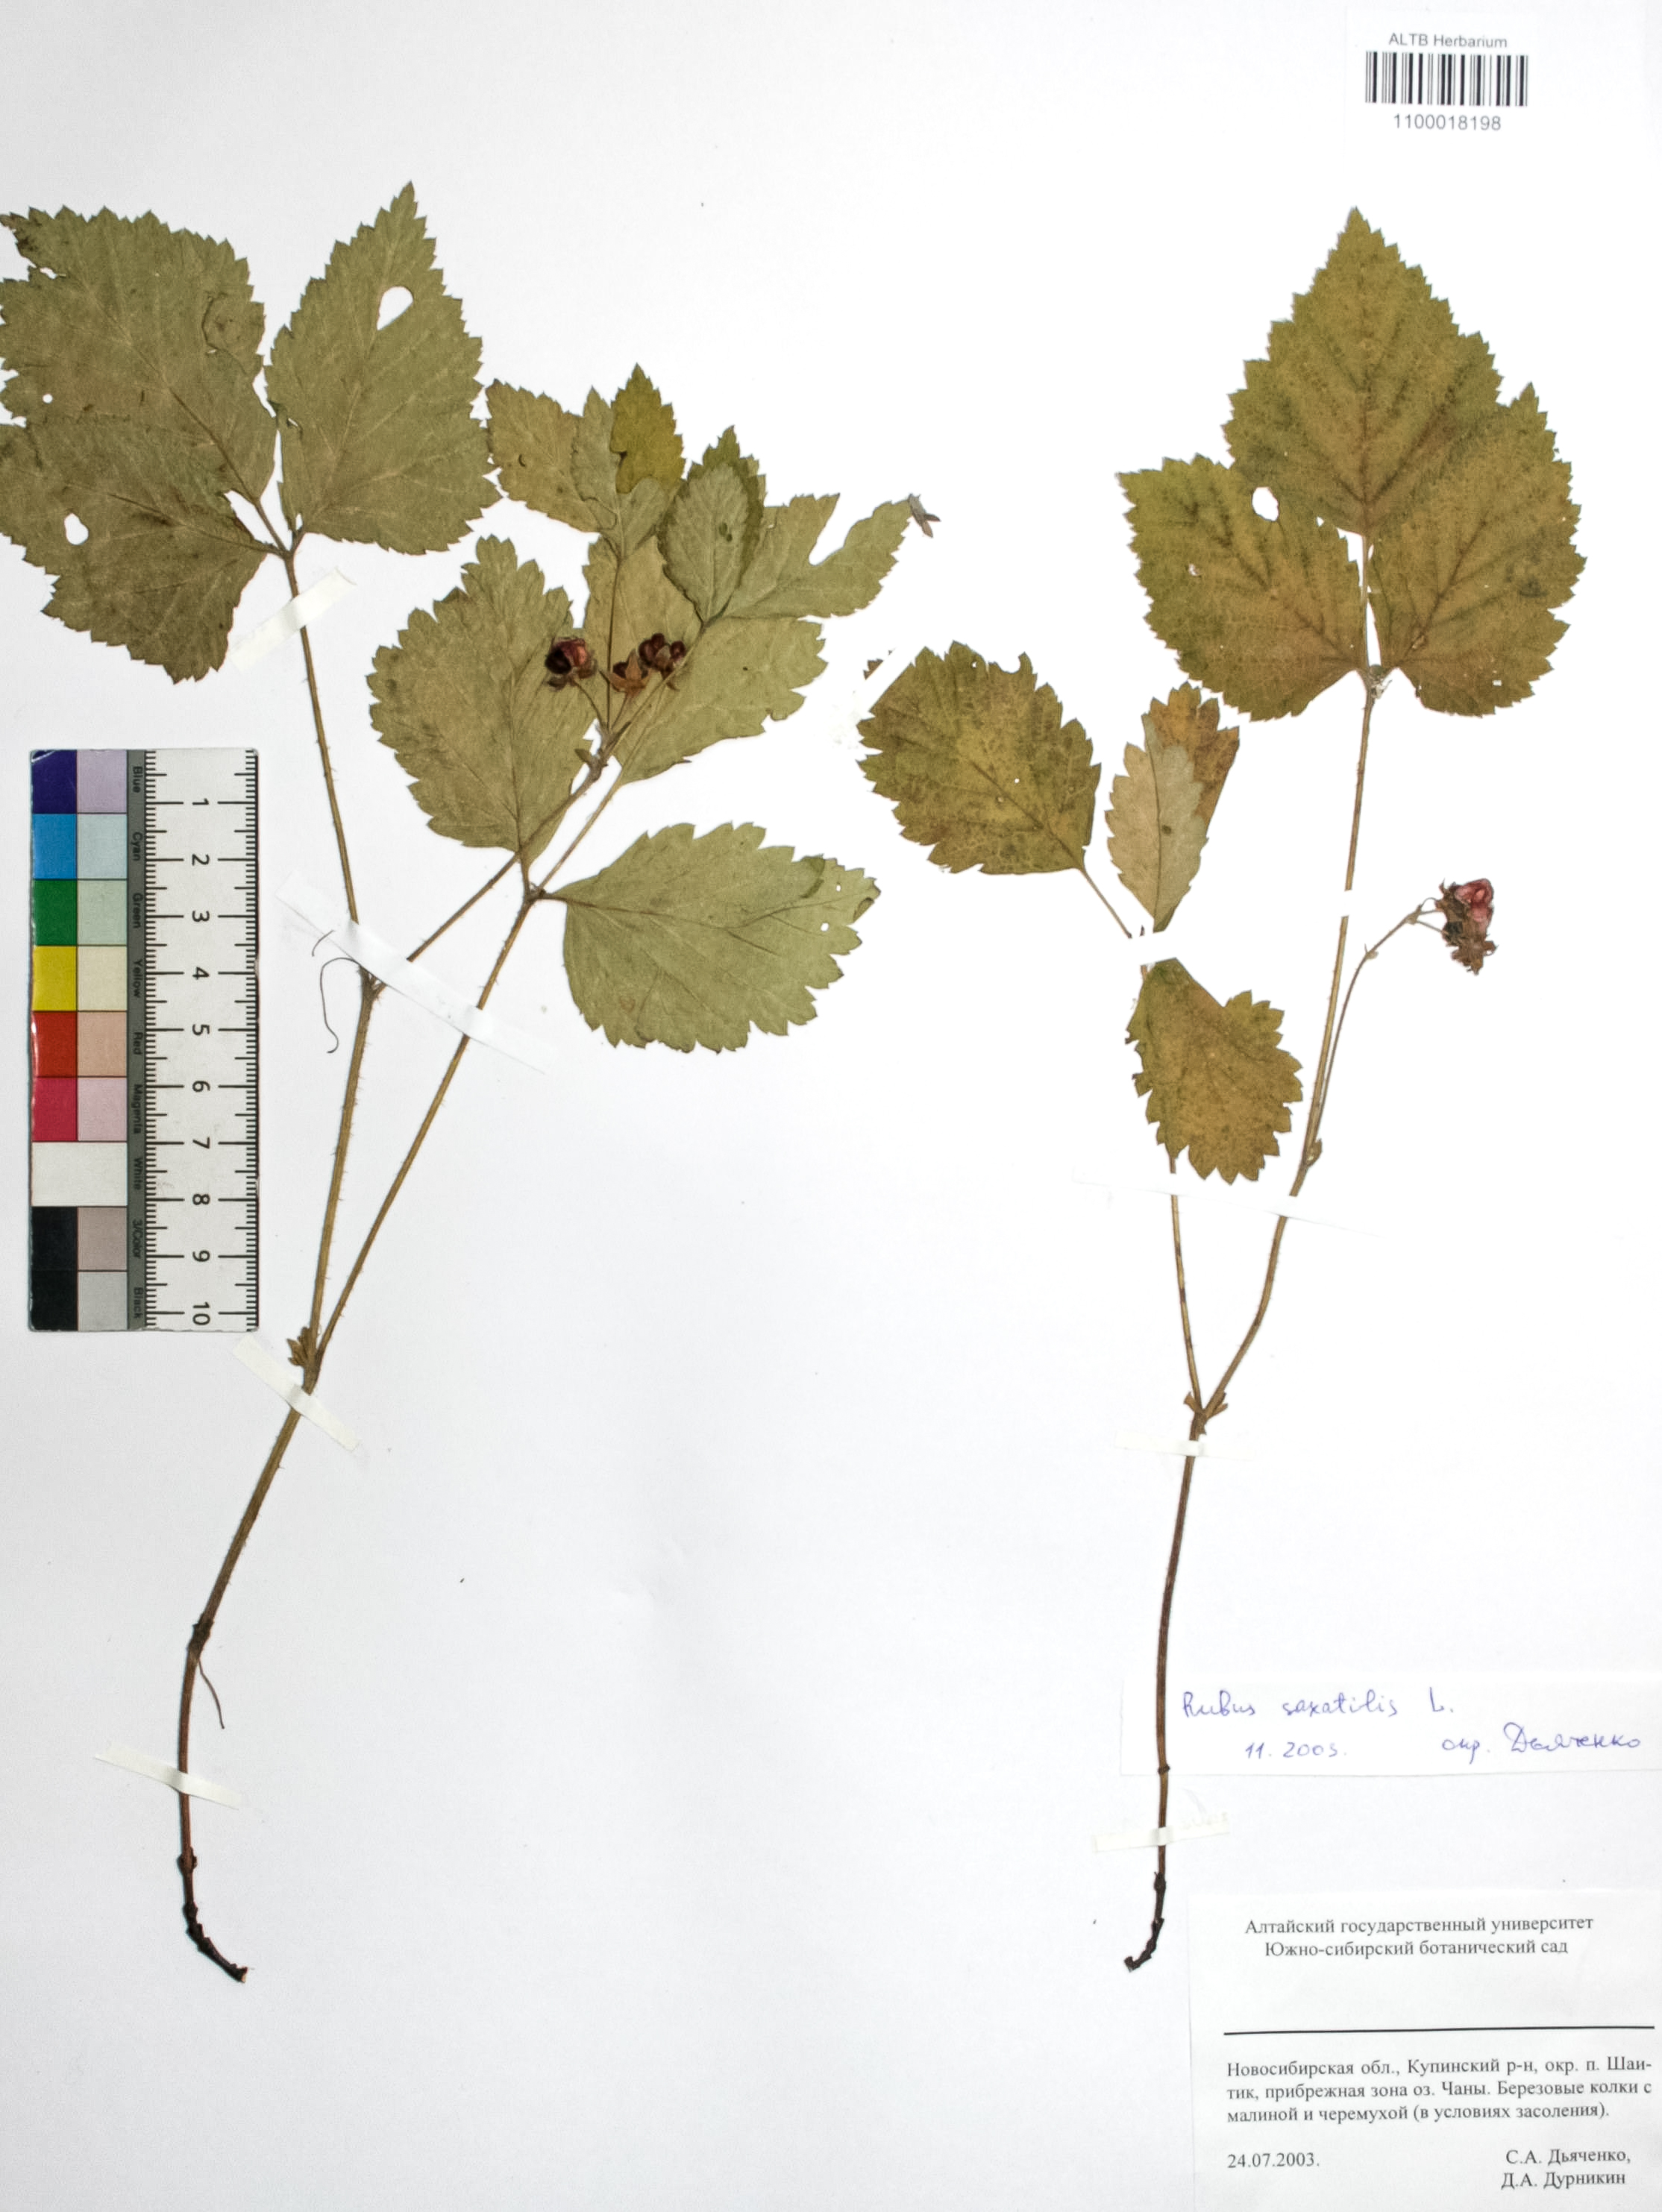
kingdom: Plantae
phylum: Tracheophyta
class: Magnoliopsida
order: Rosales
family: Rosaceae
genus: Rubus
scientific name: Rubus saxatilis
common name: Stone bramble
